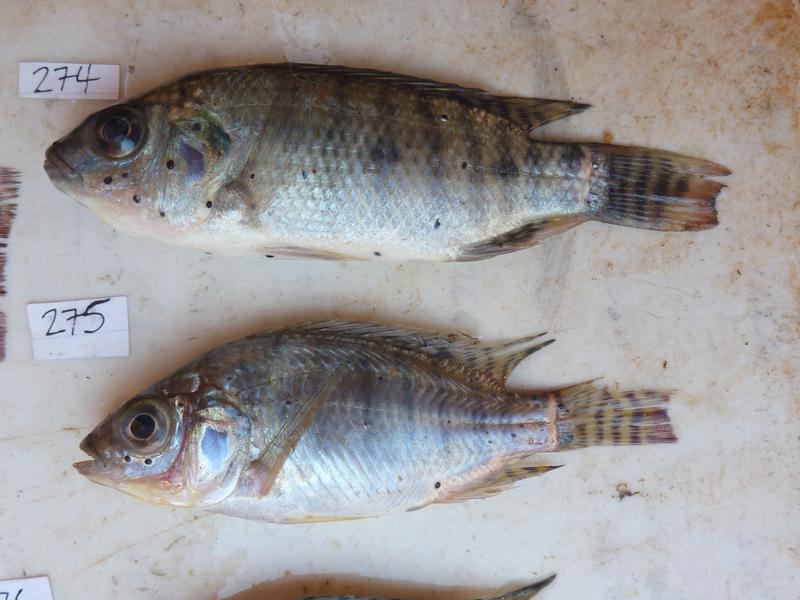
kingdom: Animalia
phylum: Chordata
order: Perciformes
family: Cichlidae
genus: Oreochromis
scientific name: Oreochromis niloticus
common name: Nile tilapia
